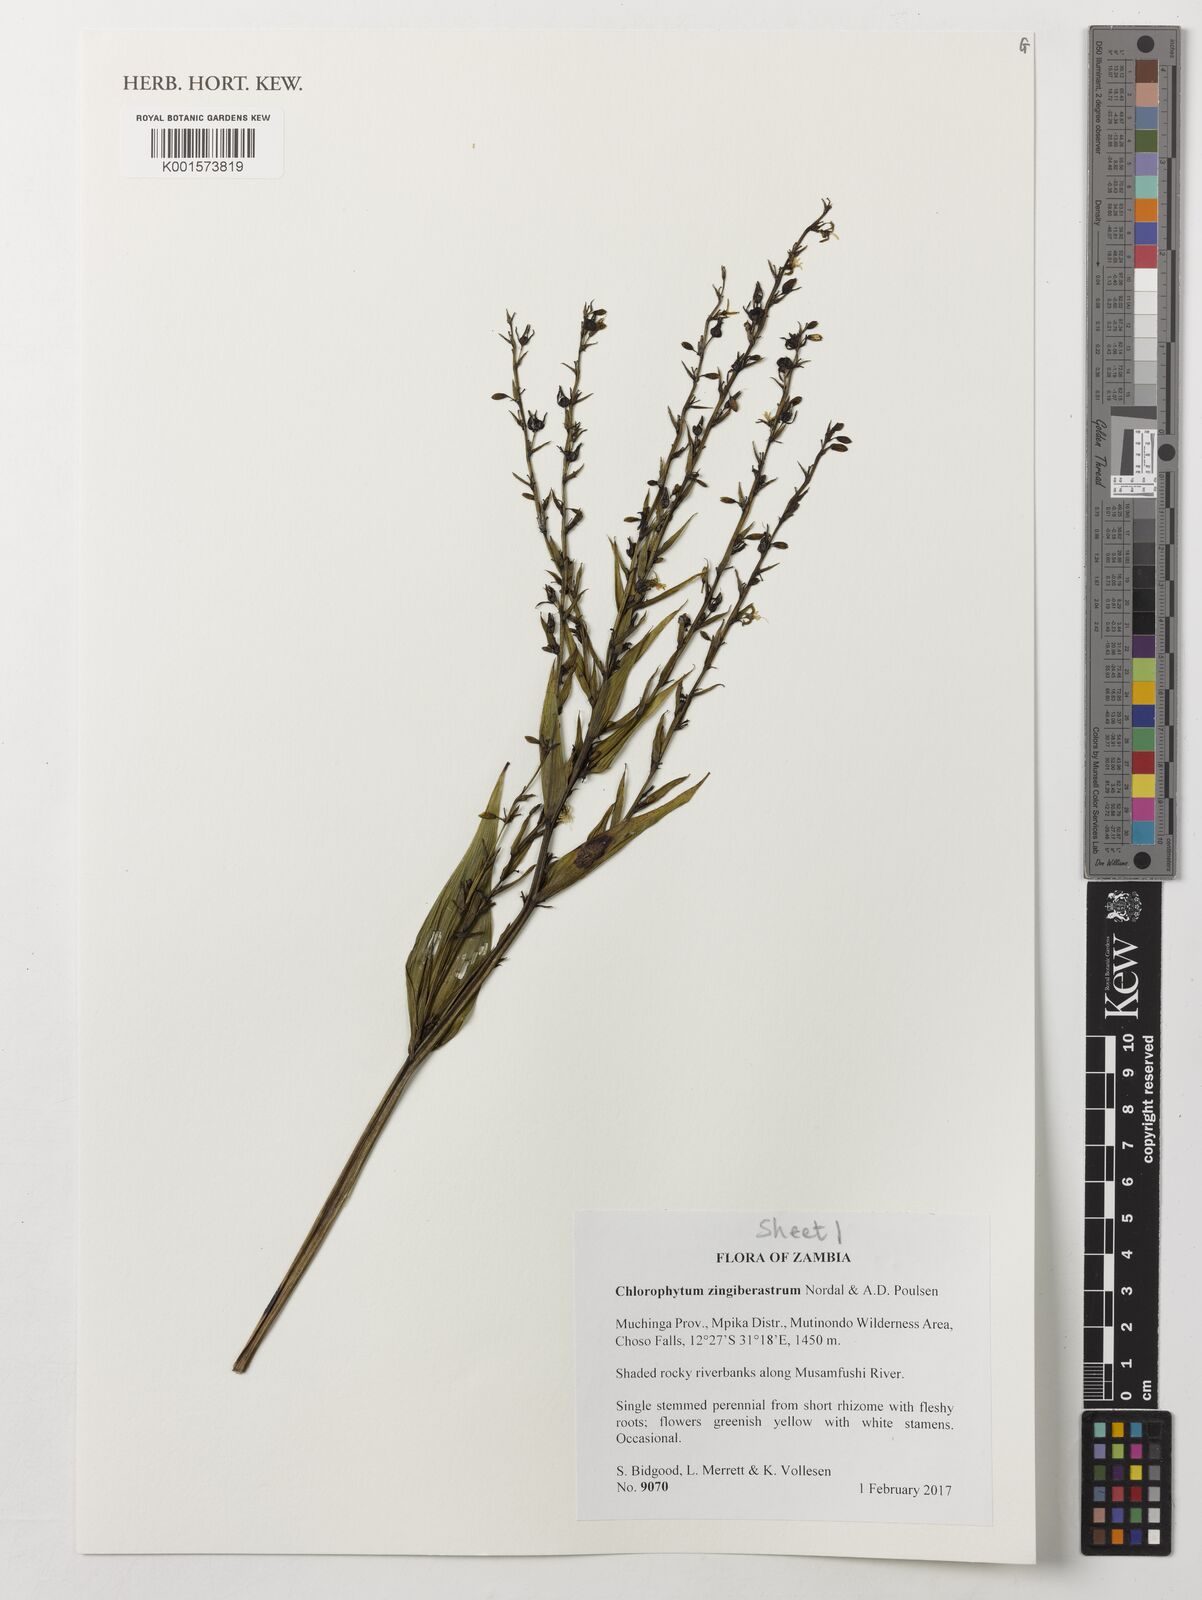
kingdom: Plantae
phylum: Tracheophyta
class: Liliopsida
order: Asparagales
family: Asparagaceae
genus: Chlorophytum
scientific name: Chlorophytum zingiberastrum
